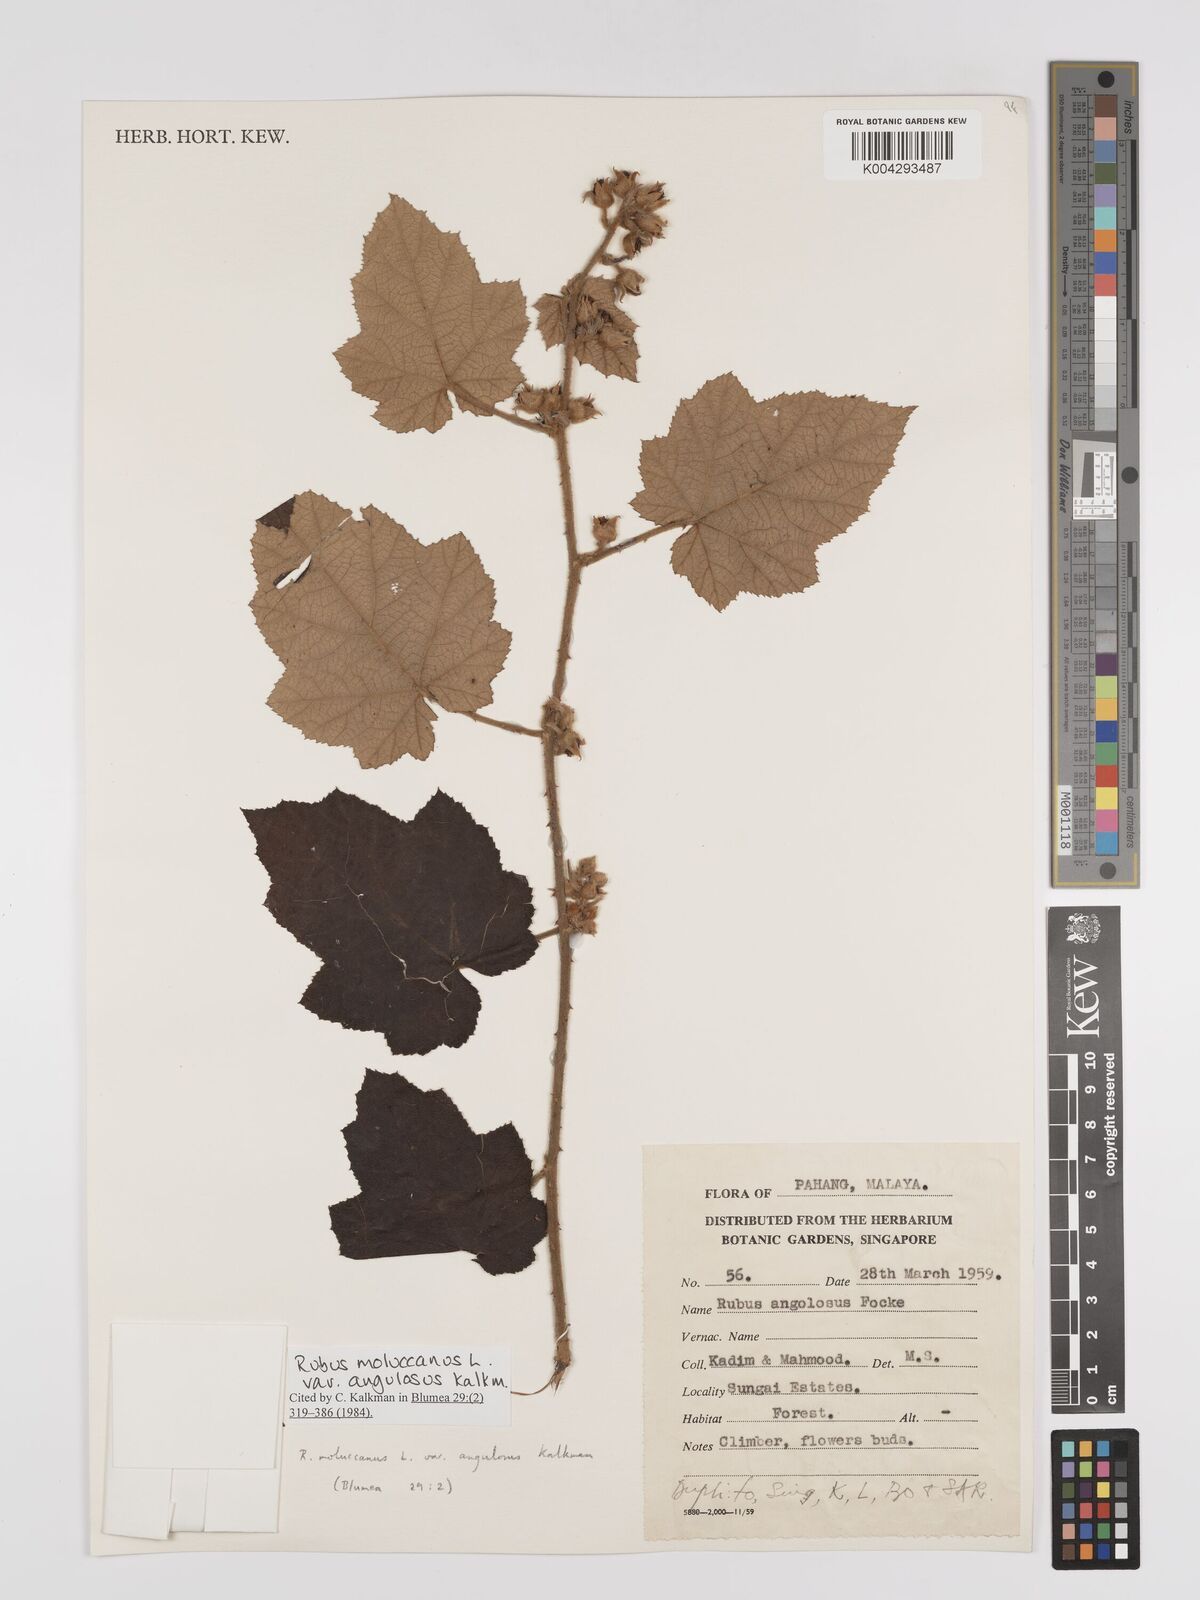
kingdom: Plantae
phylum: Tracheophyta
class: Magnoliopsida
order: Rosales
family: Rosaceae
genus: Rubus
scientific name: Rubus moluccanus
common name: Wild raspberry
